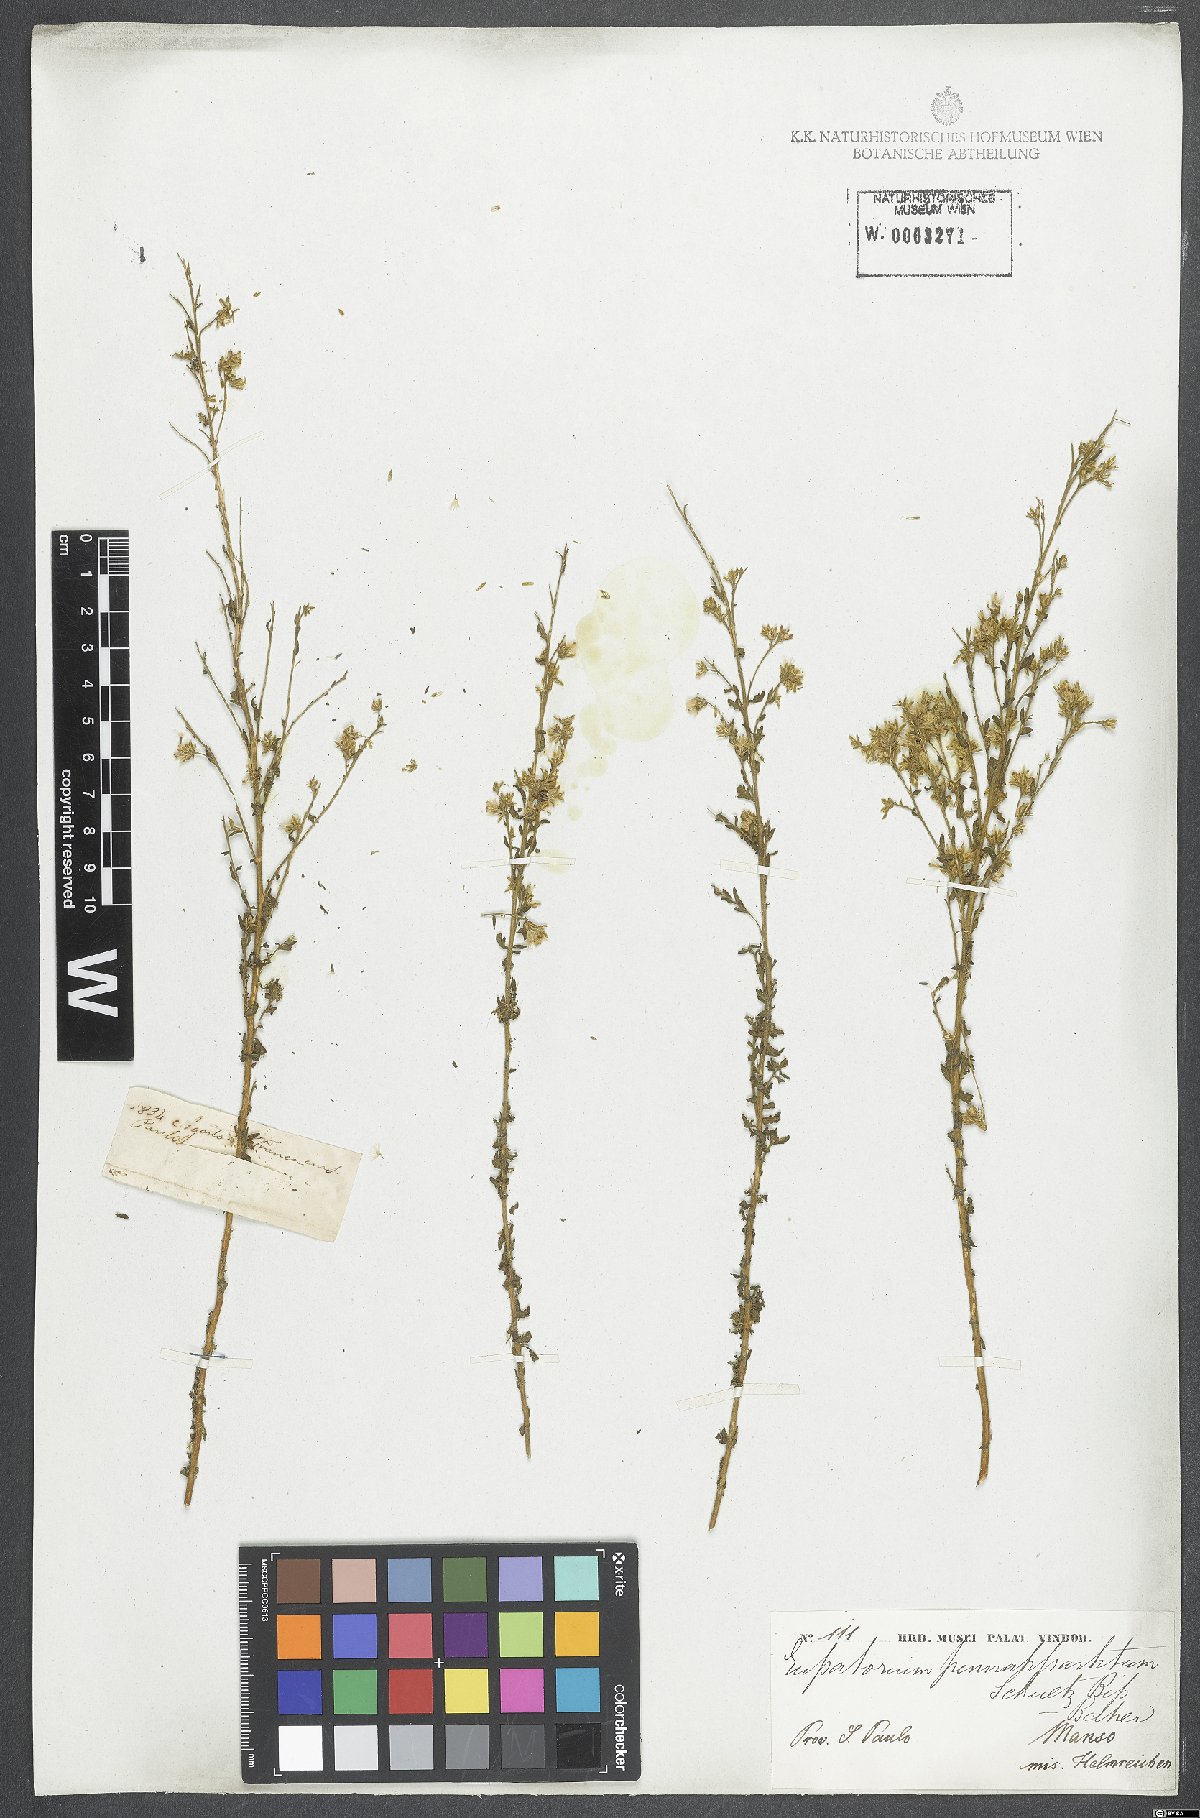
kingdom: Plantae
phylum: Tracheophyta
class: Magnoliopsida
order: Asterales
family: Asteraceae
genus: Stomatanthes
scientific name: Stomatanthes pinnatipartitus
